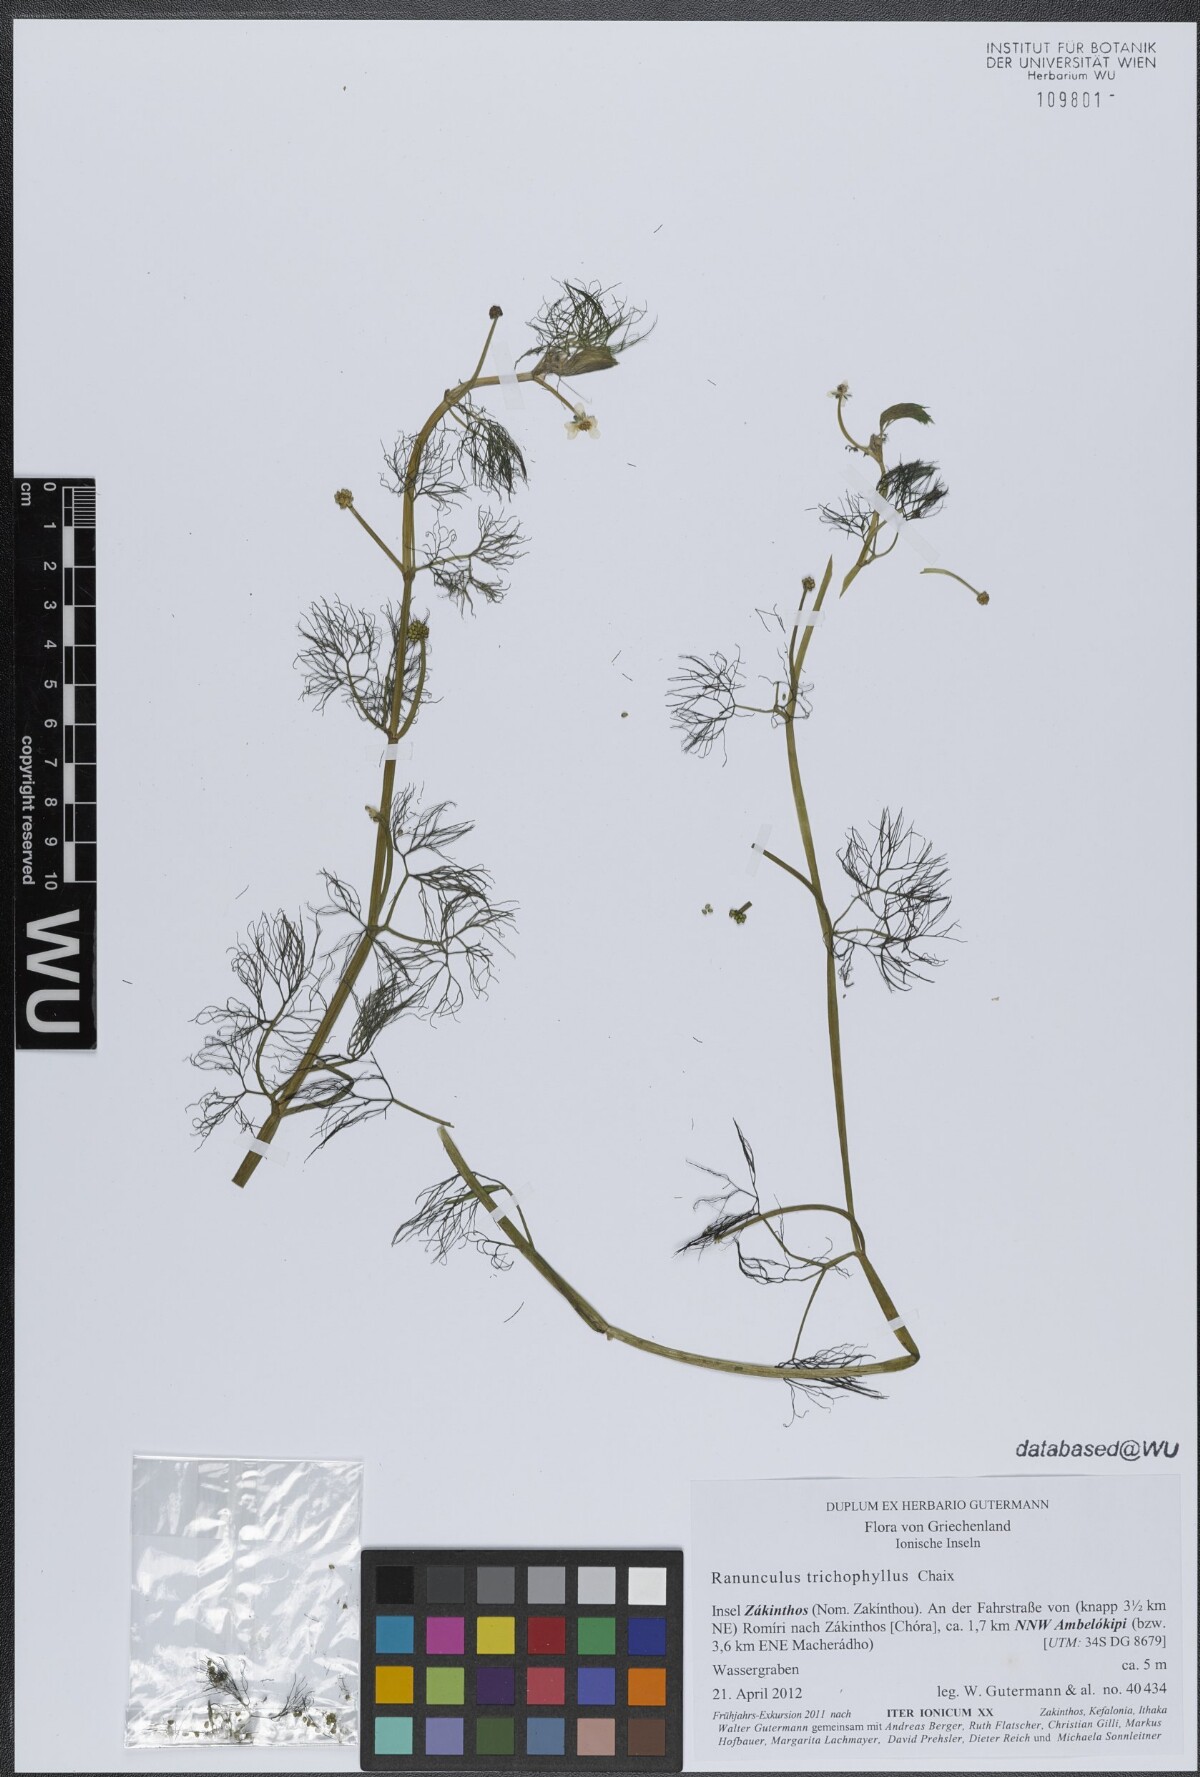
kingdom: Plantae
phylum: Tracheophyta
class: Magnoliopsida
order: Ranunculales
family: Ranunculaceae
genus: Ranunculus
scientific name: Ranunculus trichophyllus
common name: Thread-leaved water-crowfoot
